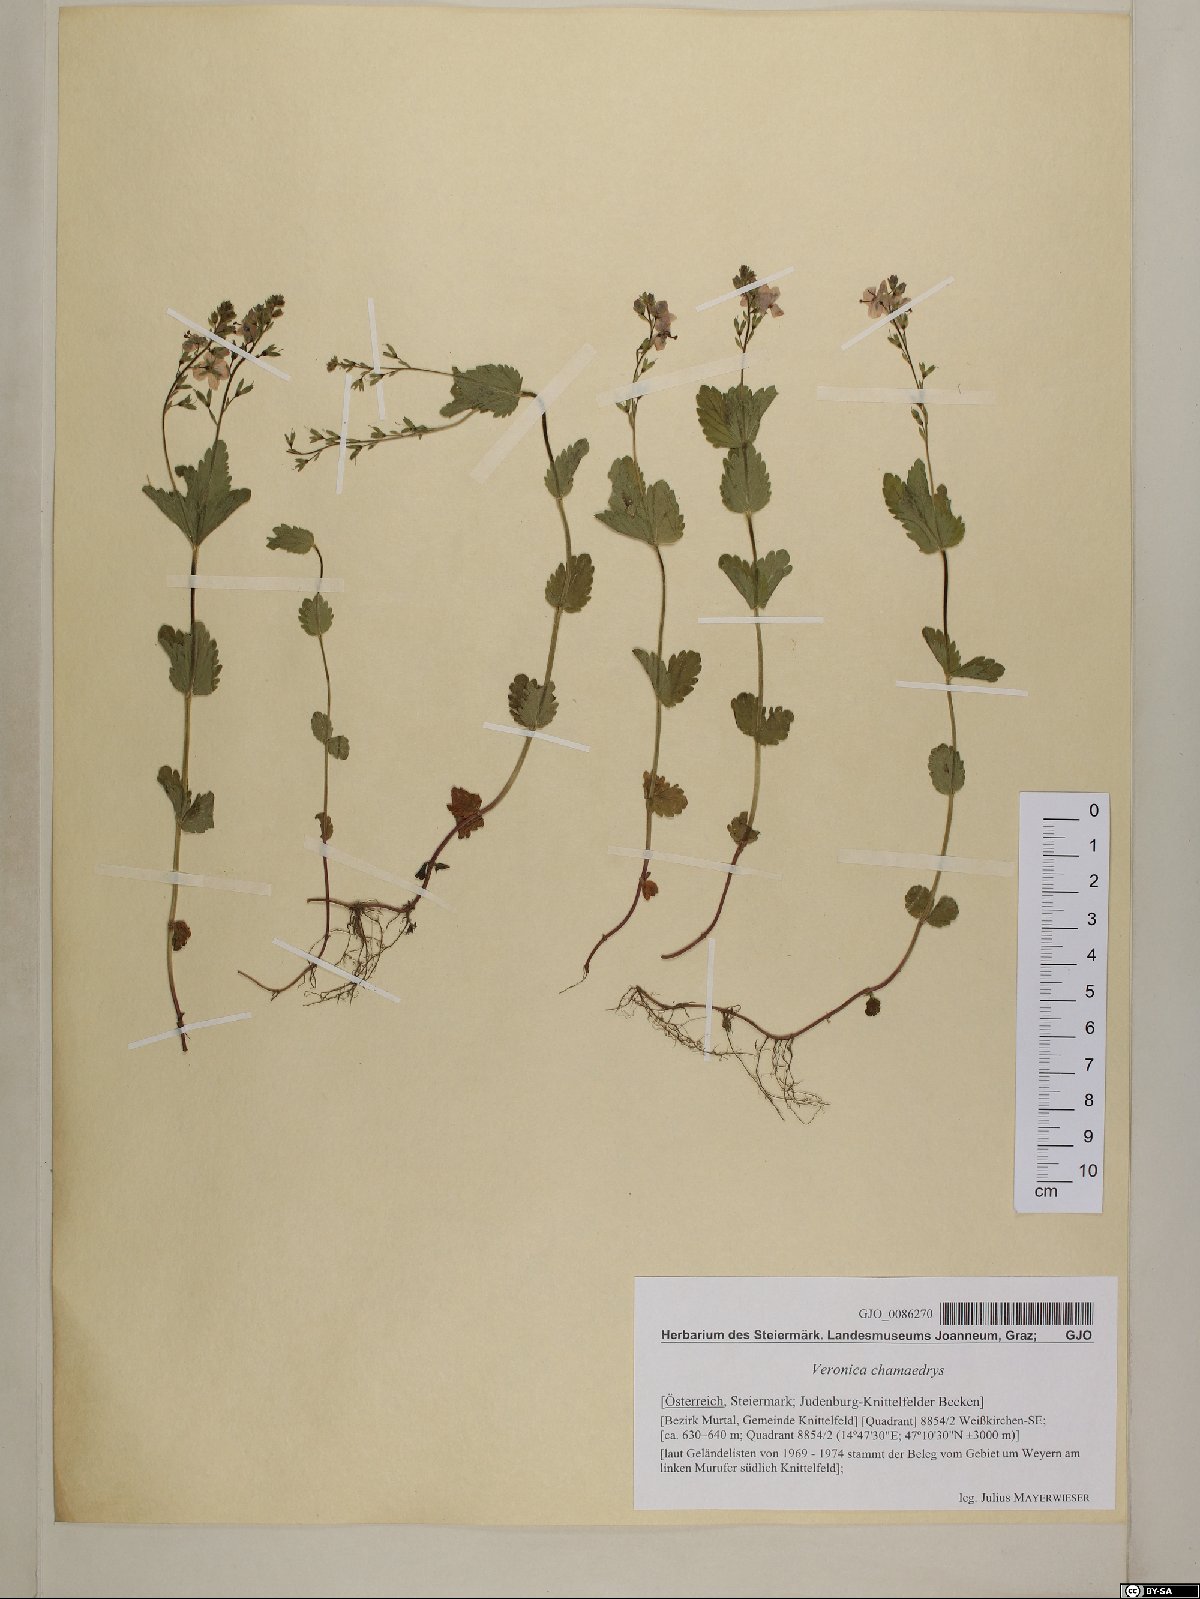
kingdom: Plantae
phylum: Tracheophyta
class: Magnoliopsida
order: Lamiales
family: Plantaginaceae
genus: Veronica
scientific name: Veronica chamaedrys
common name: Germander speedwell
